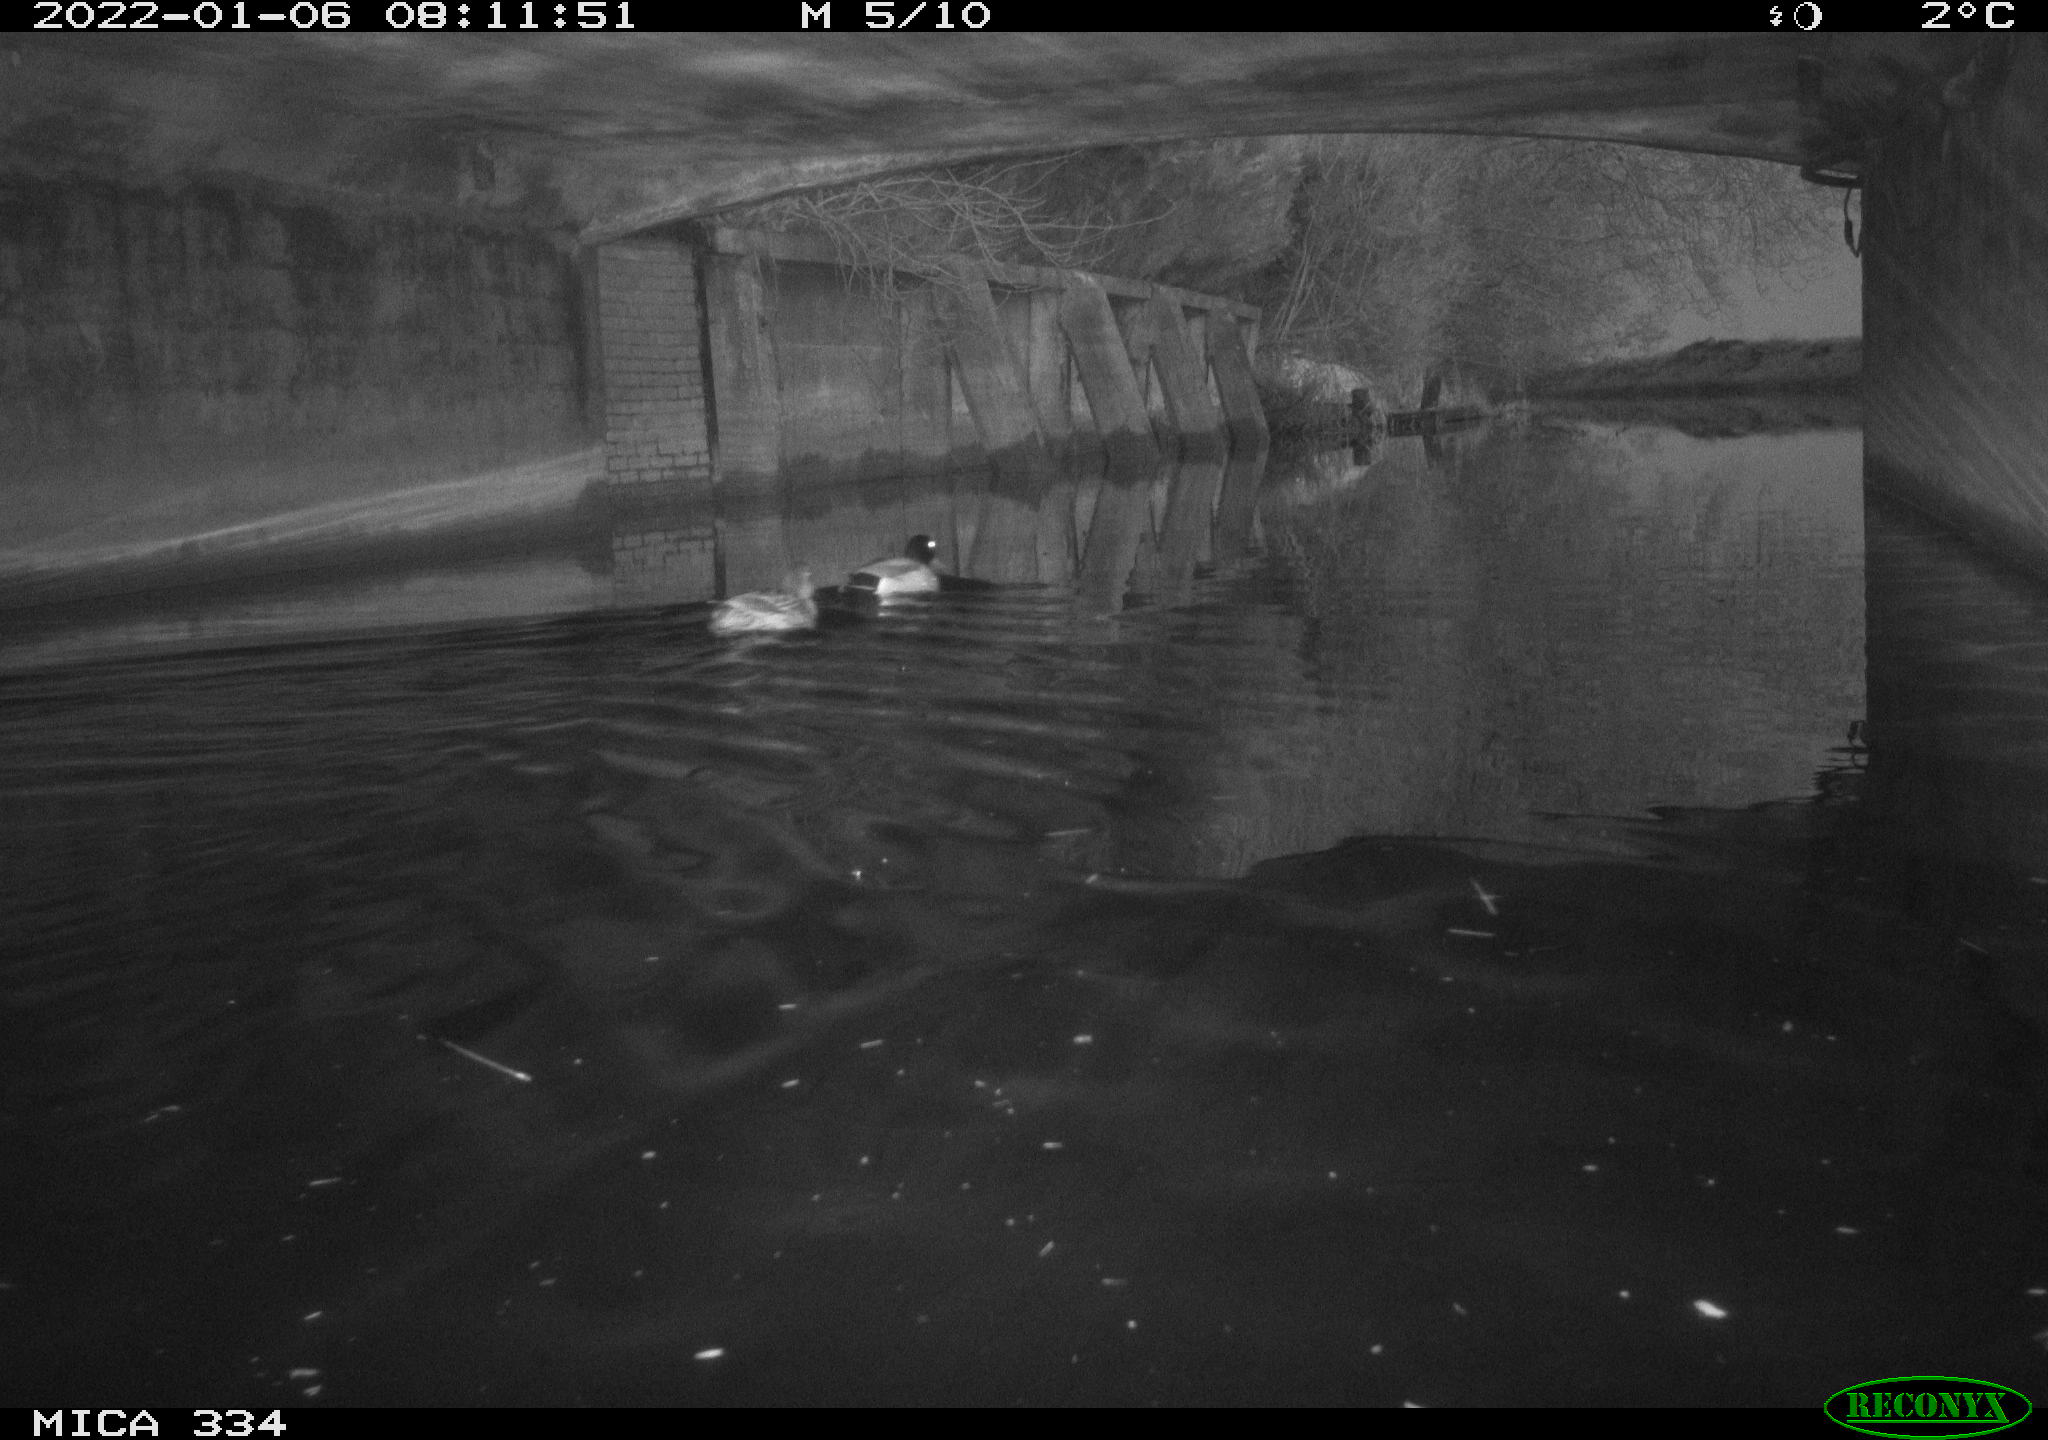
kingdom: Animalia
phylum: Chordata
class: Aves
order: Anseriformes
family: Anatidae
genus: Anas
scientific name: Anas platyrhynchos
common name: Mallard
